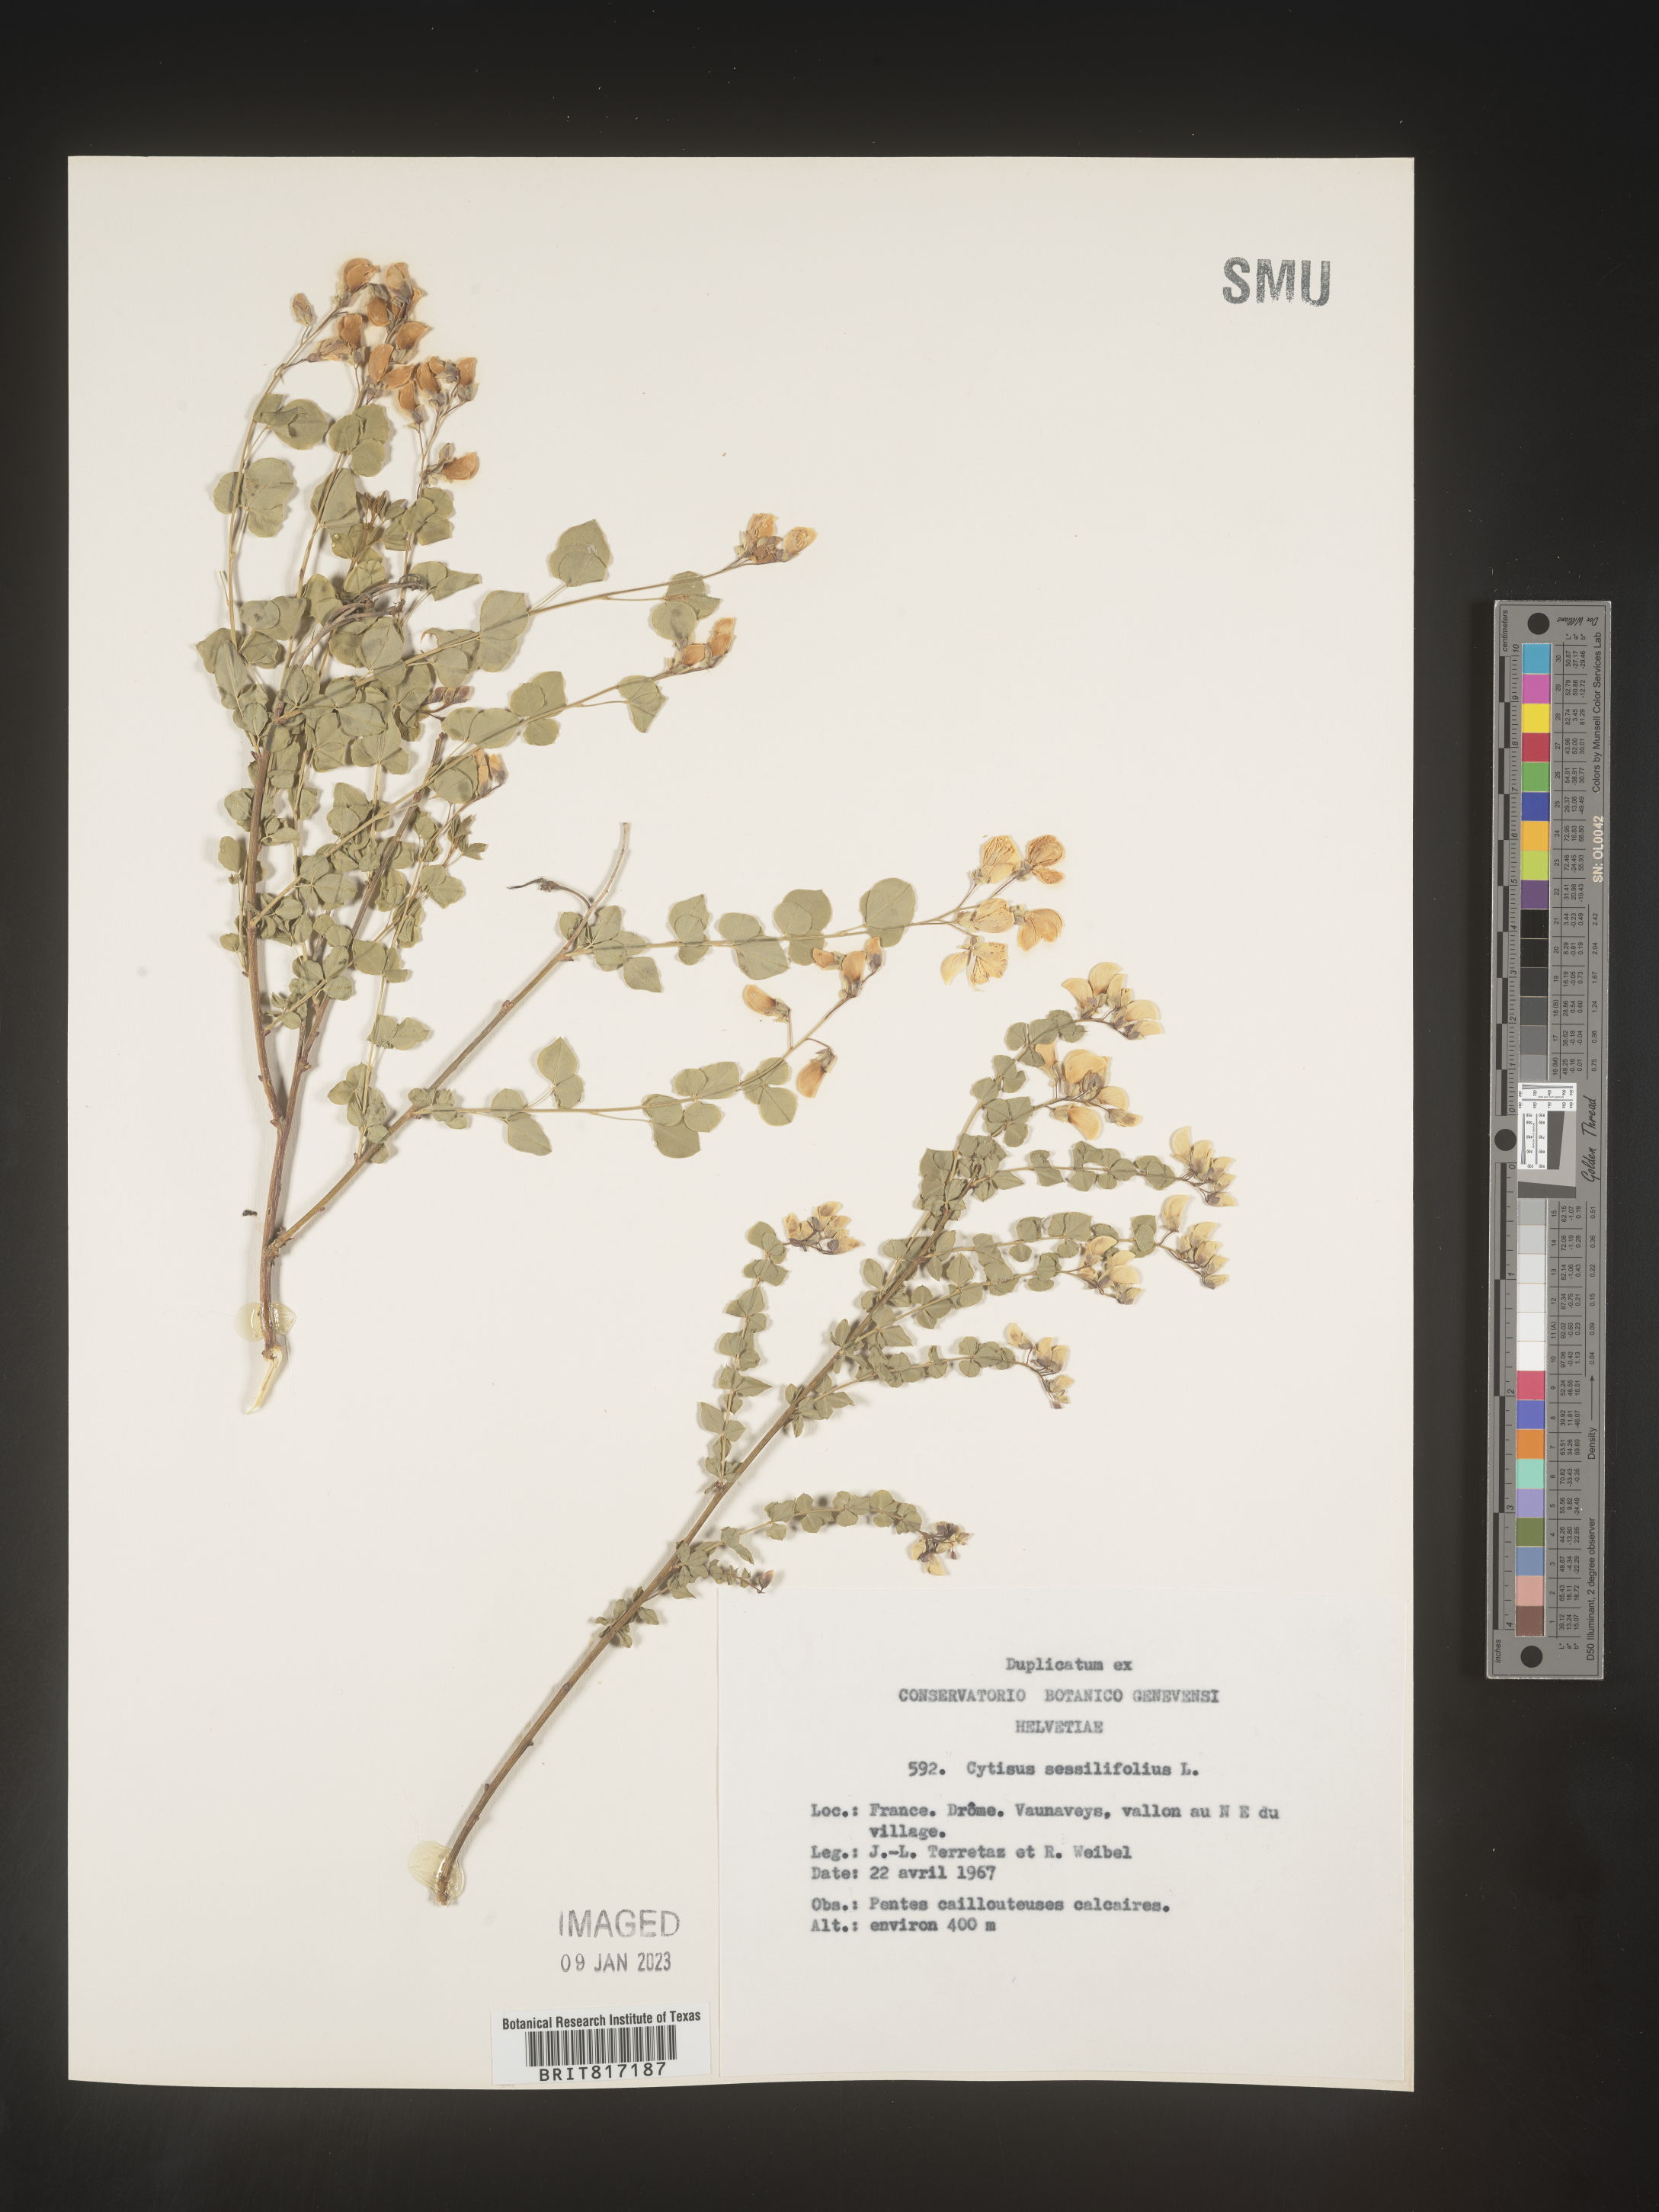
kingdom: Plantae
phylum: Tracheophyta
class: Magnoliopsida
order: Fabales
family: Fabaceae
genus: Cytisus
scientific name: Cytisus
